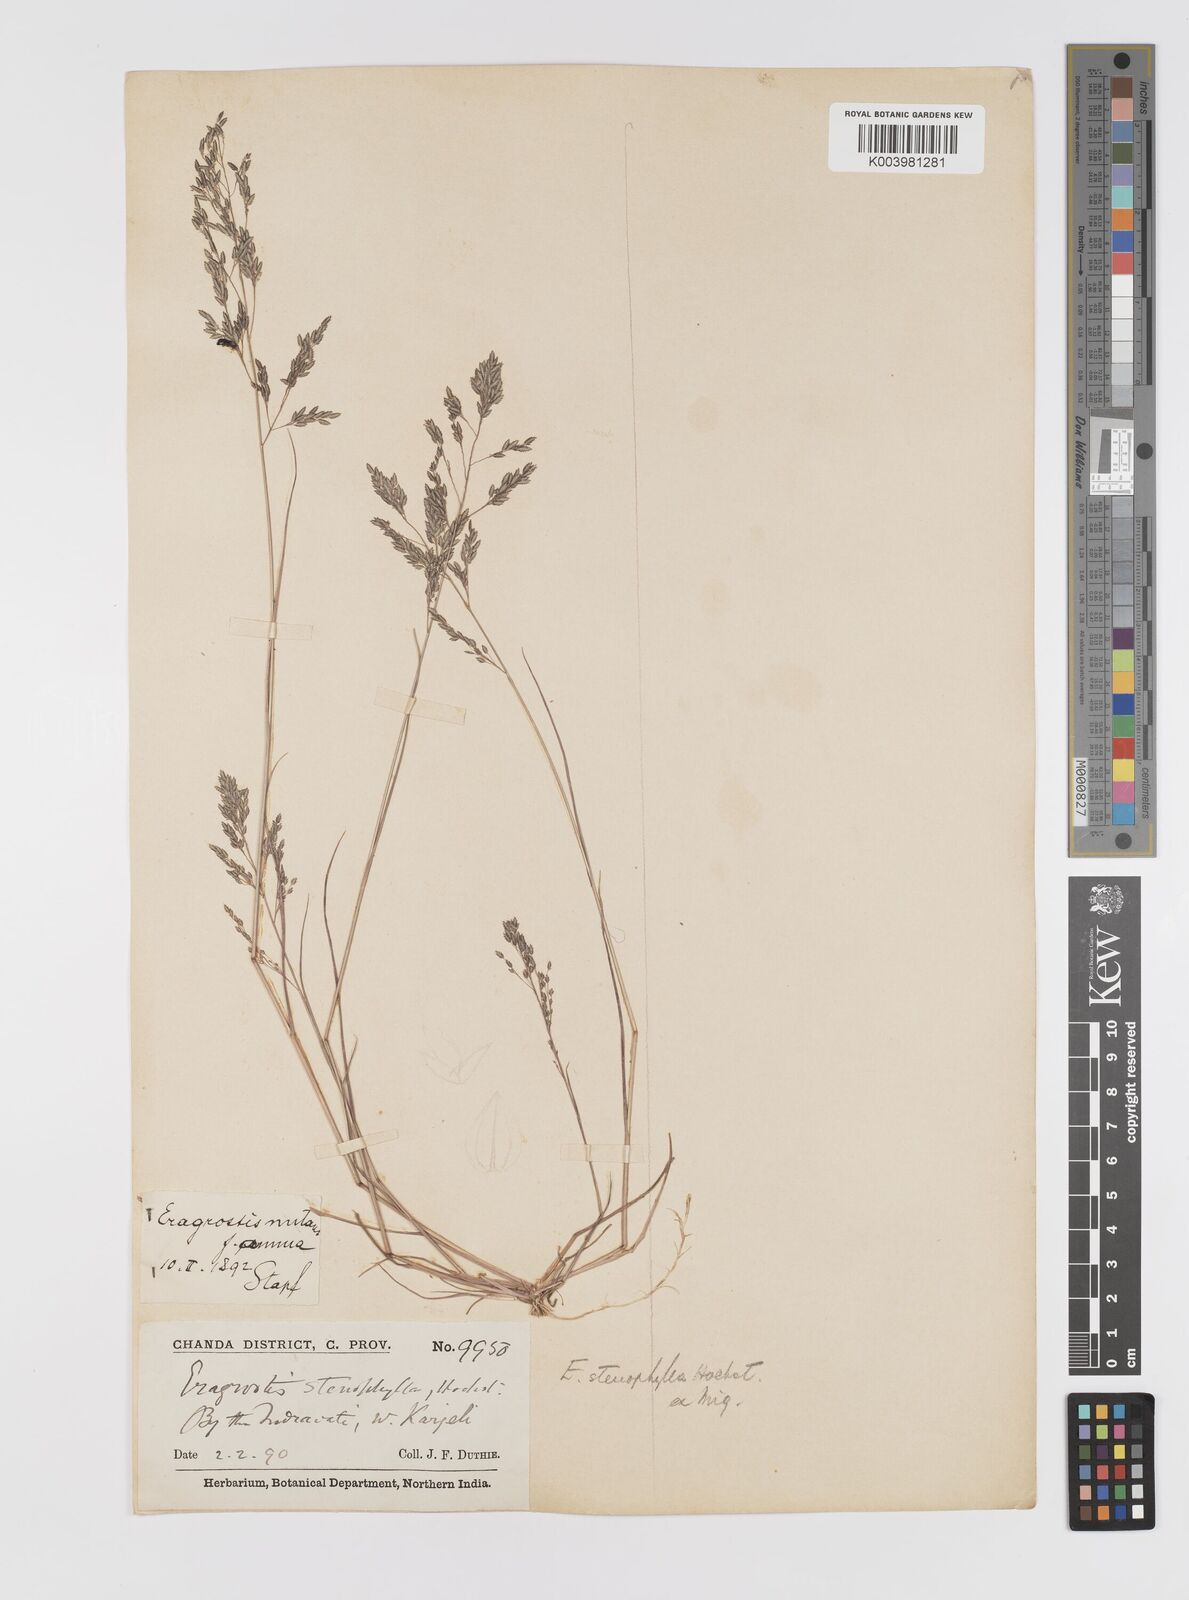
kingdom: Plantae
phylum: Tracheophyta
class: Liliopsida
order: Poales
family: Poaceae
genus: Eragrostis
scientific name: Eragrostis gangetica
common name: Slimflower lovegrass
